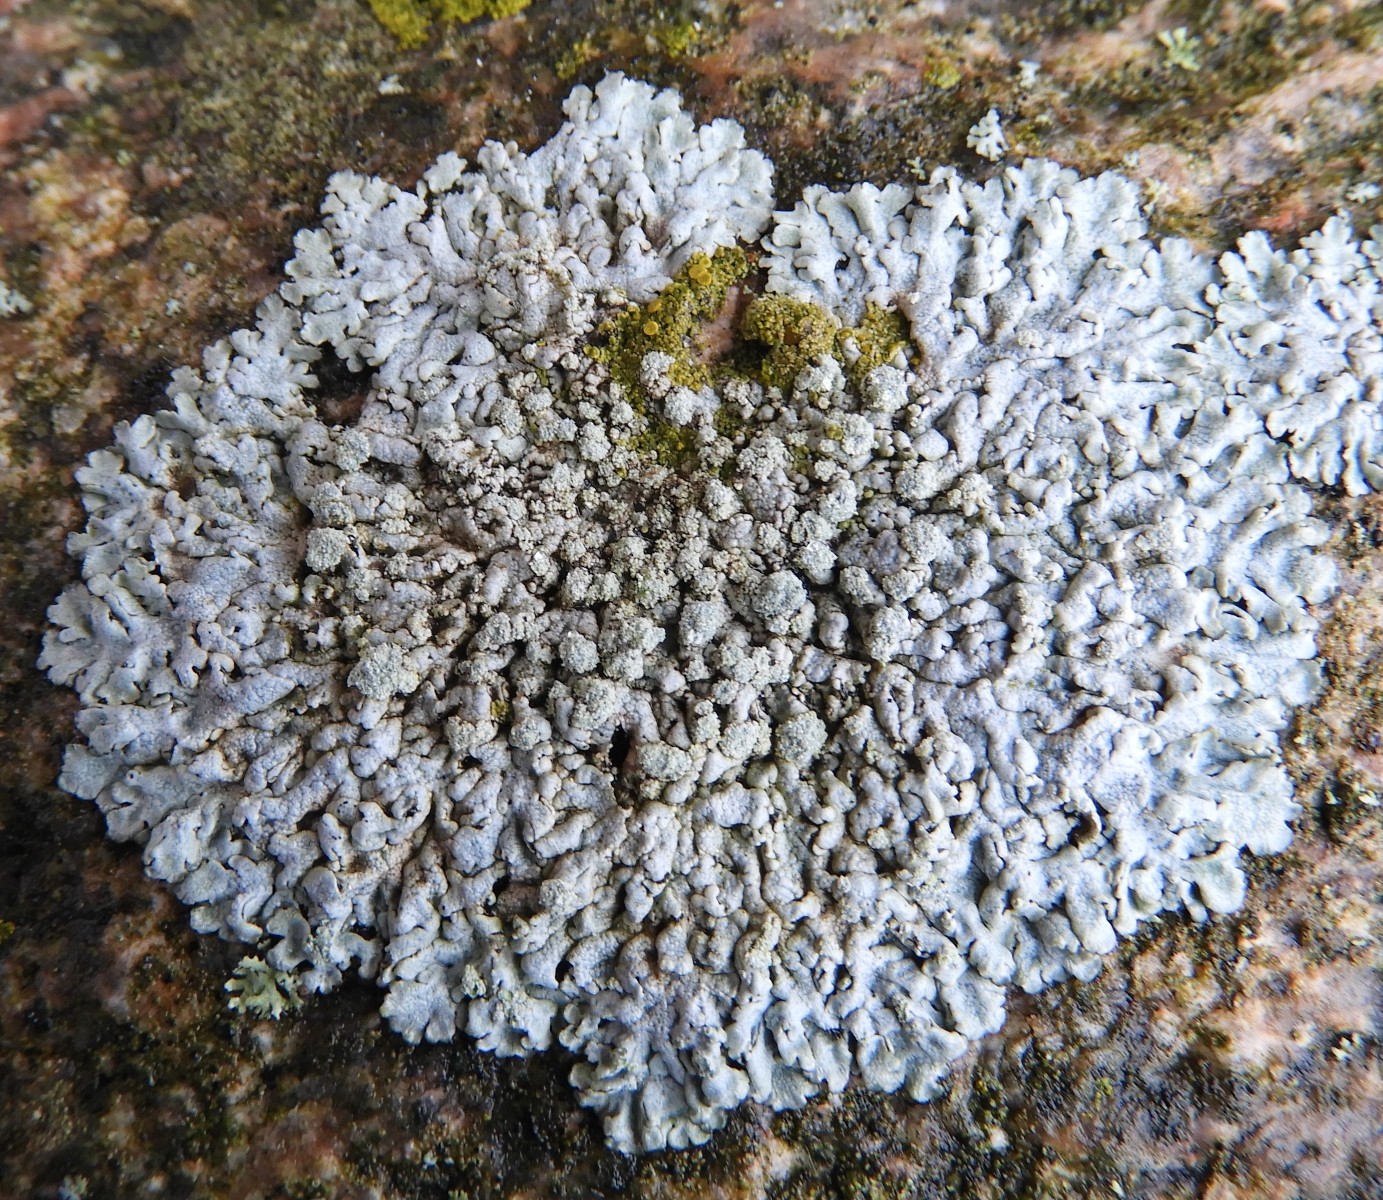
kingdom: Fungi
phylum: Ascomycota
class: Lecanoromycetes
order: Caliciales
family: Physciaceae
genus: Physcia
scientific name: Physcia caesia
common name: blågrå rosetlav
